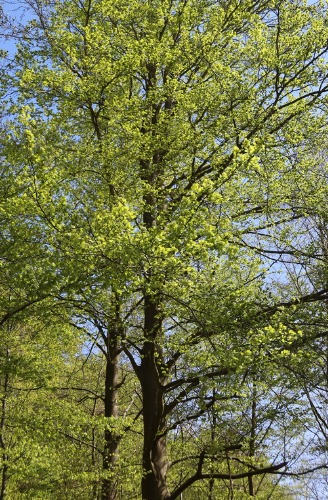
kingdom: Plantae
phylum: Tracheophyta
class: Magnoliopsida
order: Fagales
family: Fagaceae
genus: Fagus
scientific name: Fagus sylvatica
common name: Bøg
